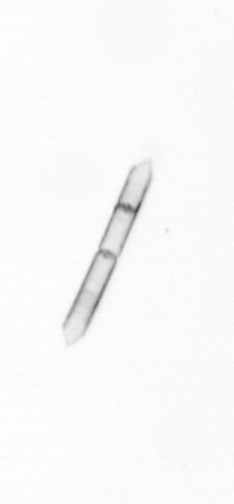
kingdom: Chromista
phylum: Ochrophyta
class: Bacillariophyceae
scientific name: Bacillariophyceae
